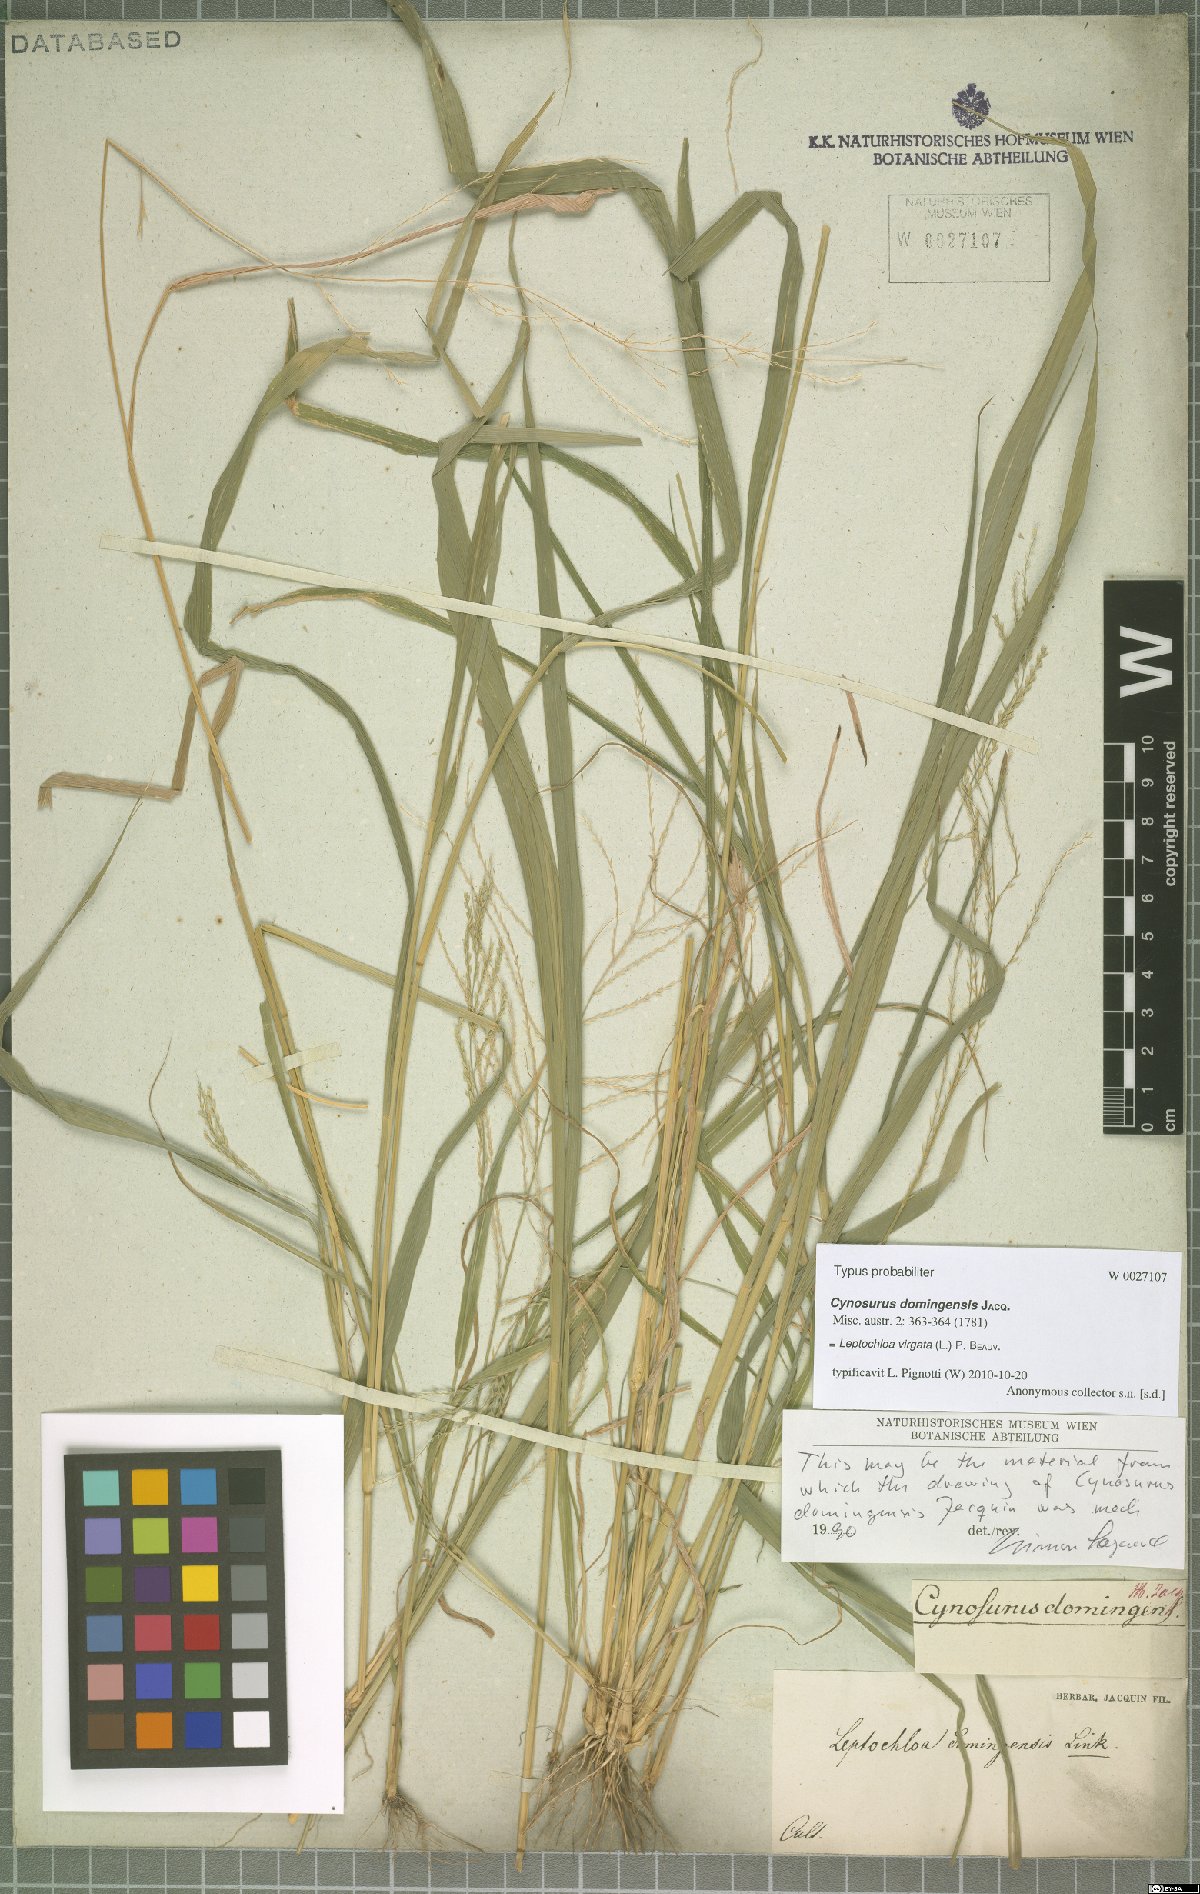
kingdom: Plantae
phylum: Tracheophyta
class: Liliopsida
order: Poales
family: Poaceae
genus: Leptochloa
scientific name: Leptochloa virgata
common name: Tropical sprangletop
